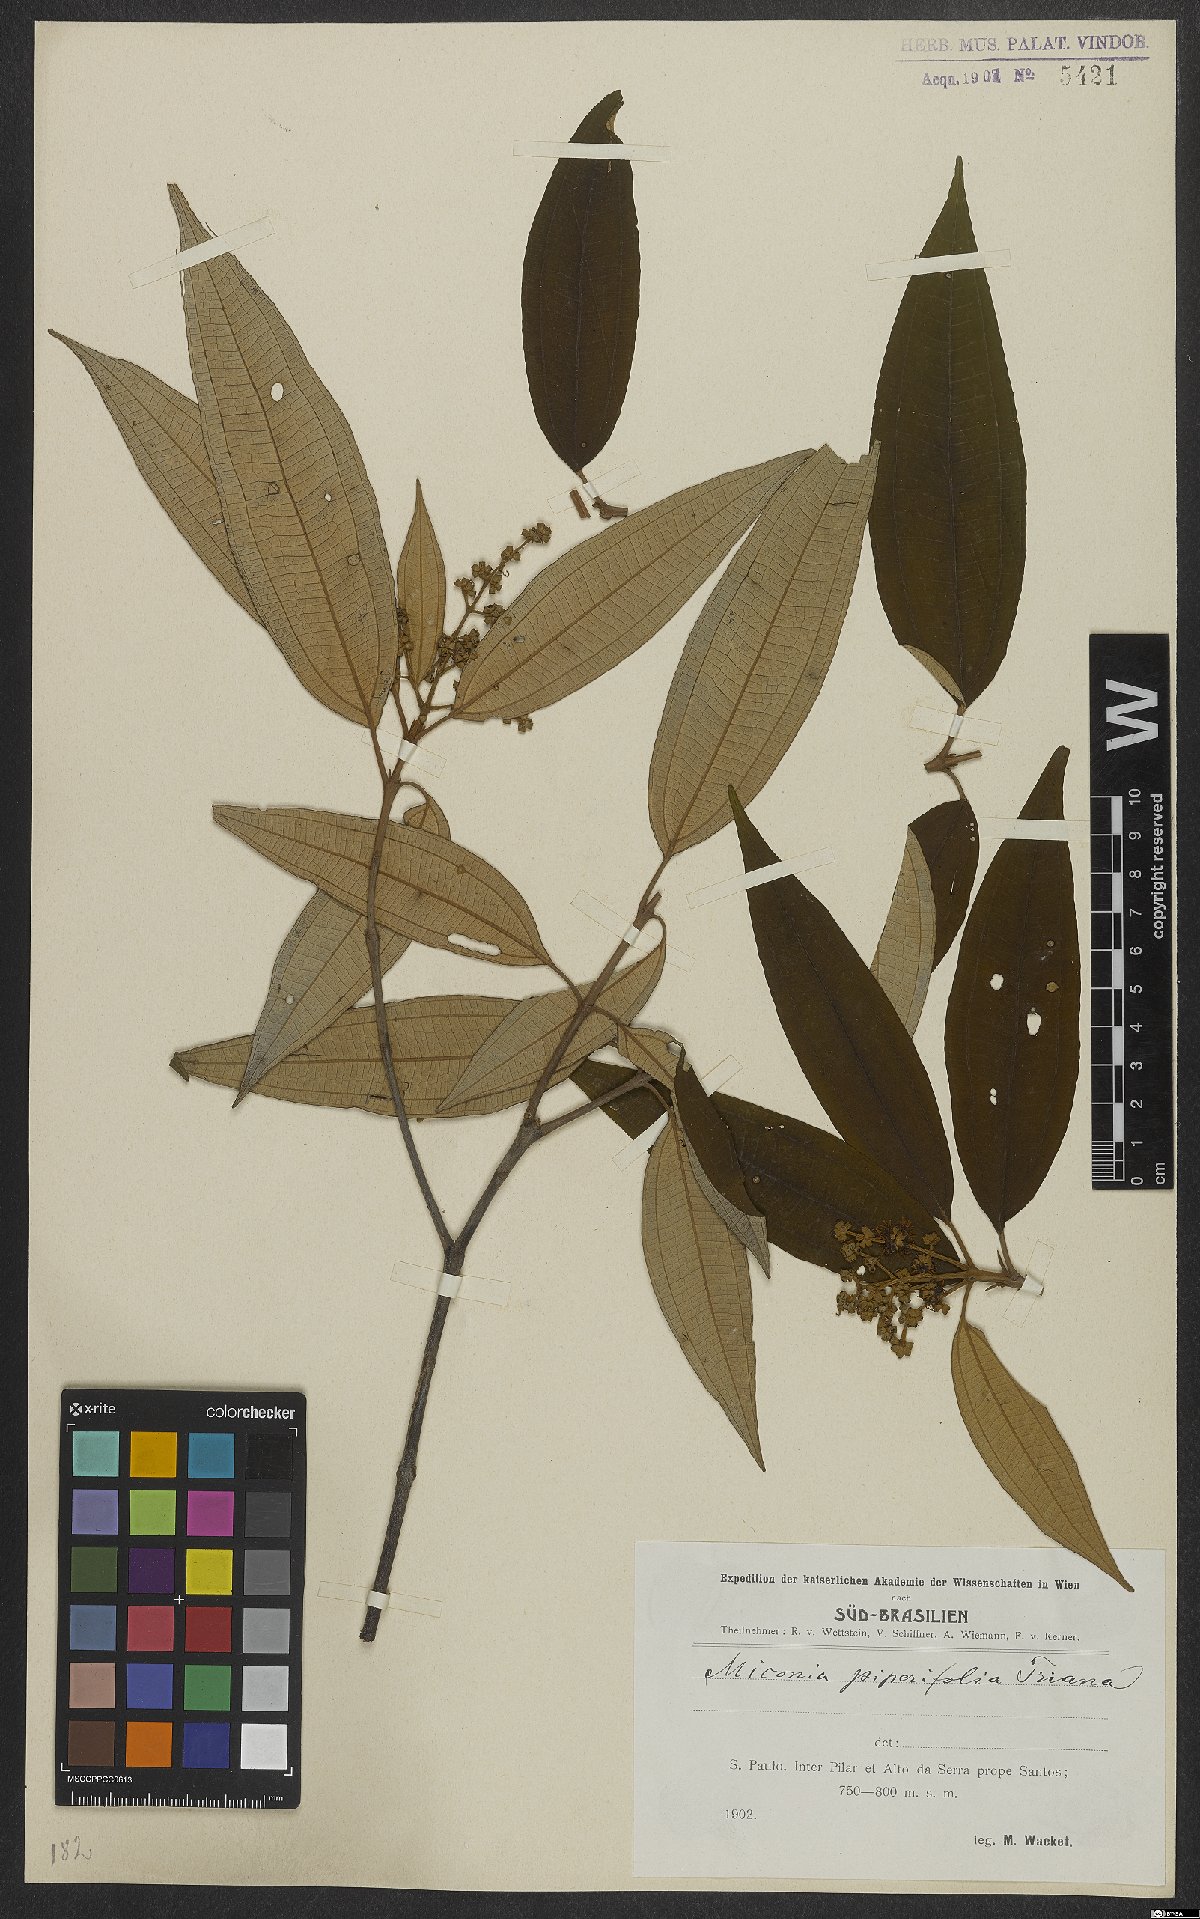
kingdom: Plantae
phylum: Tracheophyta
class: Magnoliopsida
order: Myrtales
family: Melastomataceae
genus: Miconia
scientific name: Miconia piperifolia
